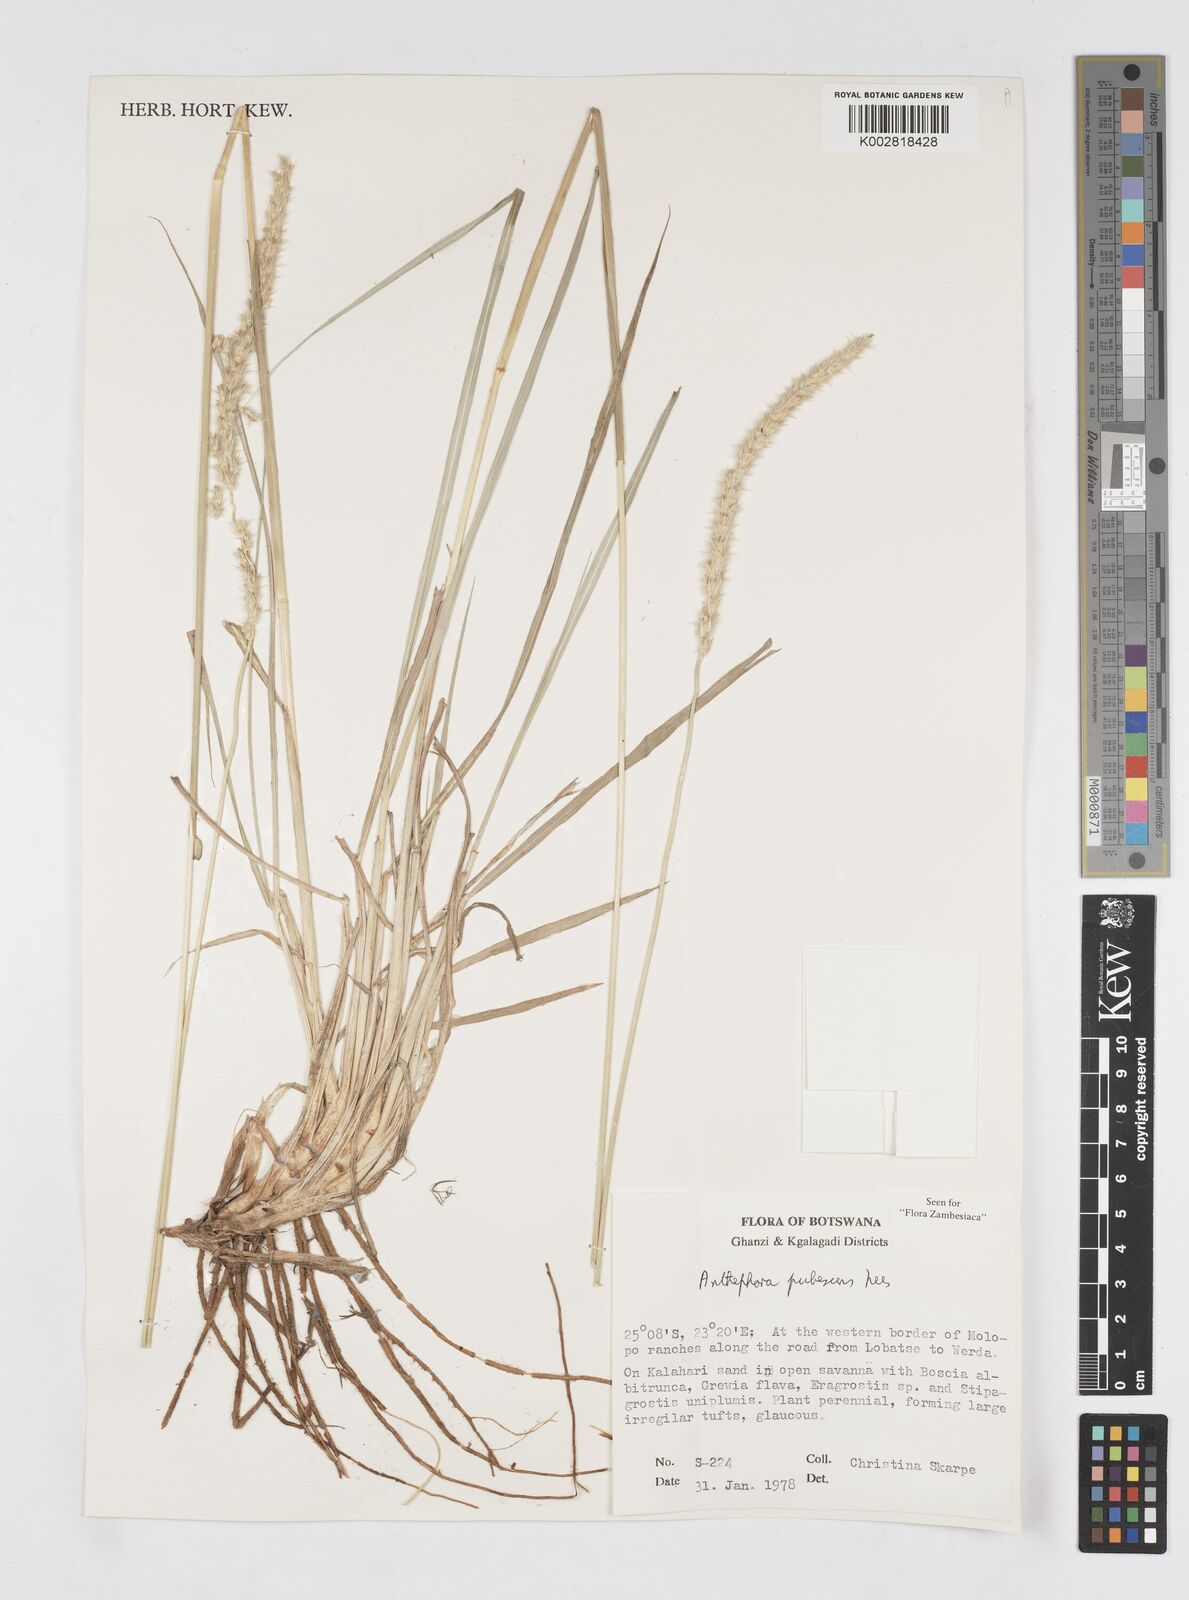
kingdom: Plantae
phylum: Tracheophyta
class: Liliopsida
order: Poales
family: Poaceae
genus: Anthephora
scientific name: Anthephora pubescens
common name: Wool grass
